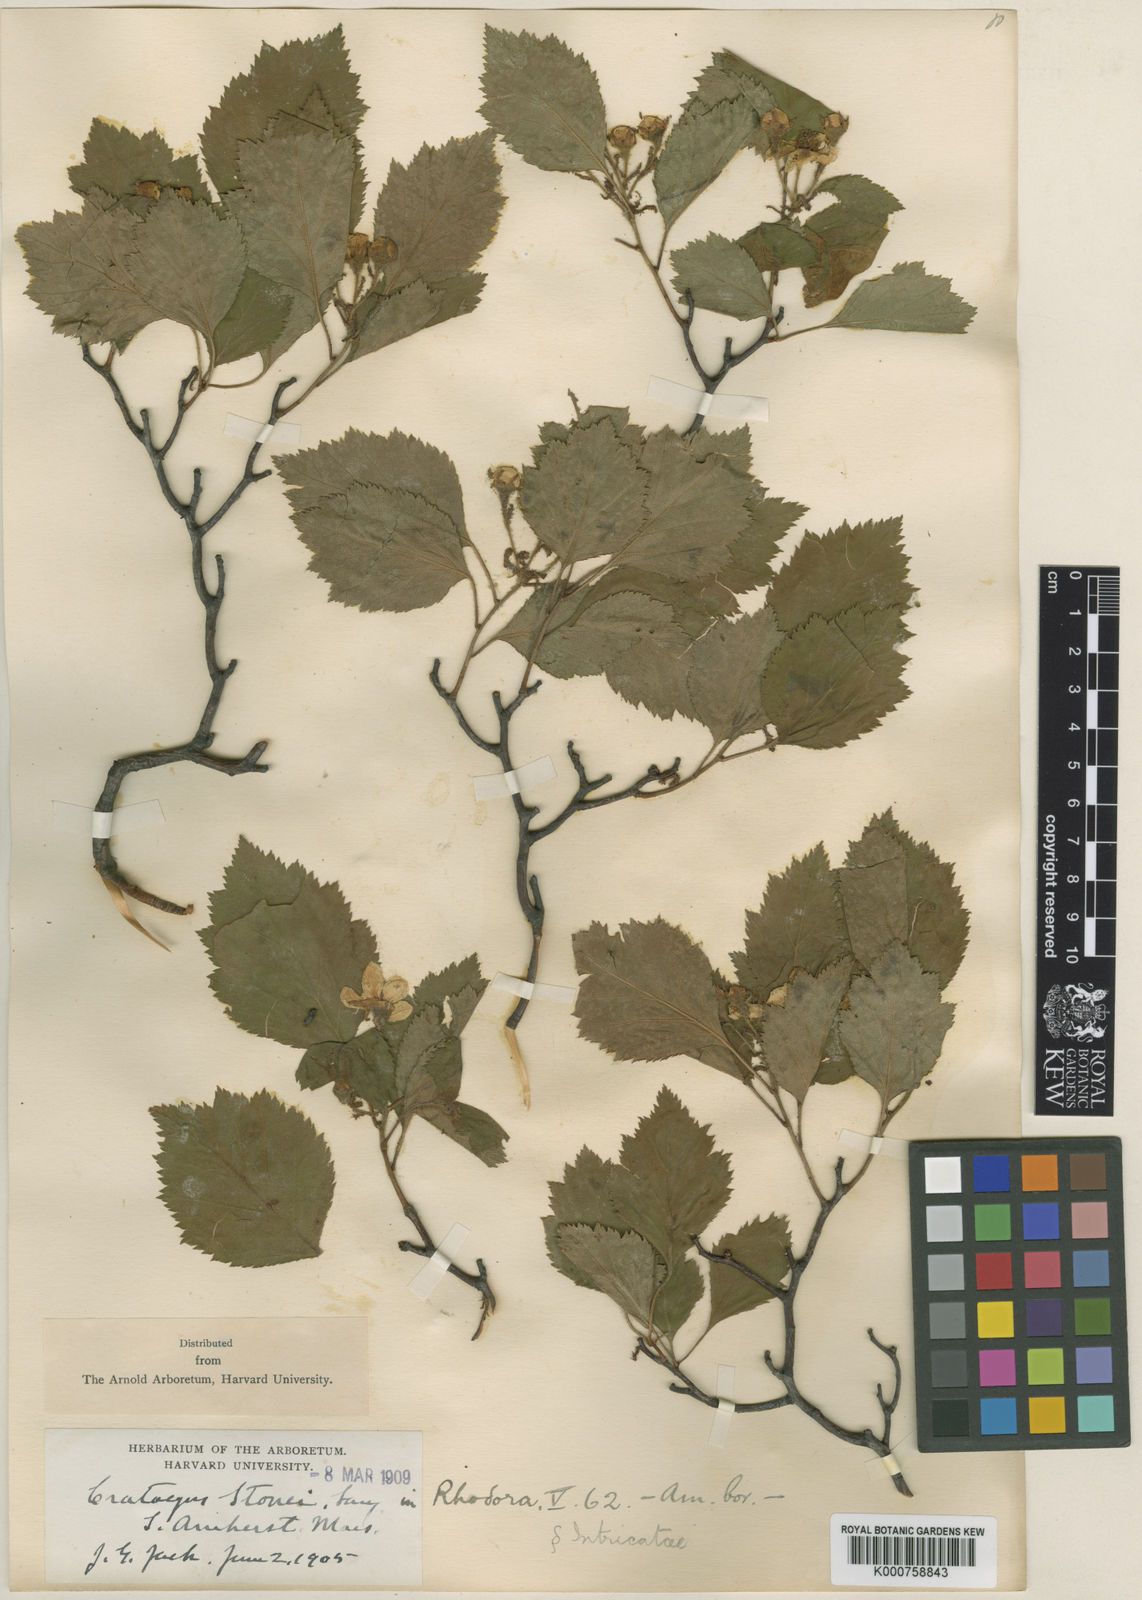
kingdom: Plantae
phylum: Tracheophyta
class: Magnoliopsida
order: Rosales
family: Rosaceae
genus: Crataegus
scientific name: Crataegus intricata
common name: Biltmore hawthorn
